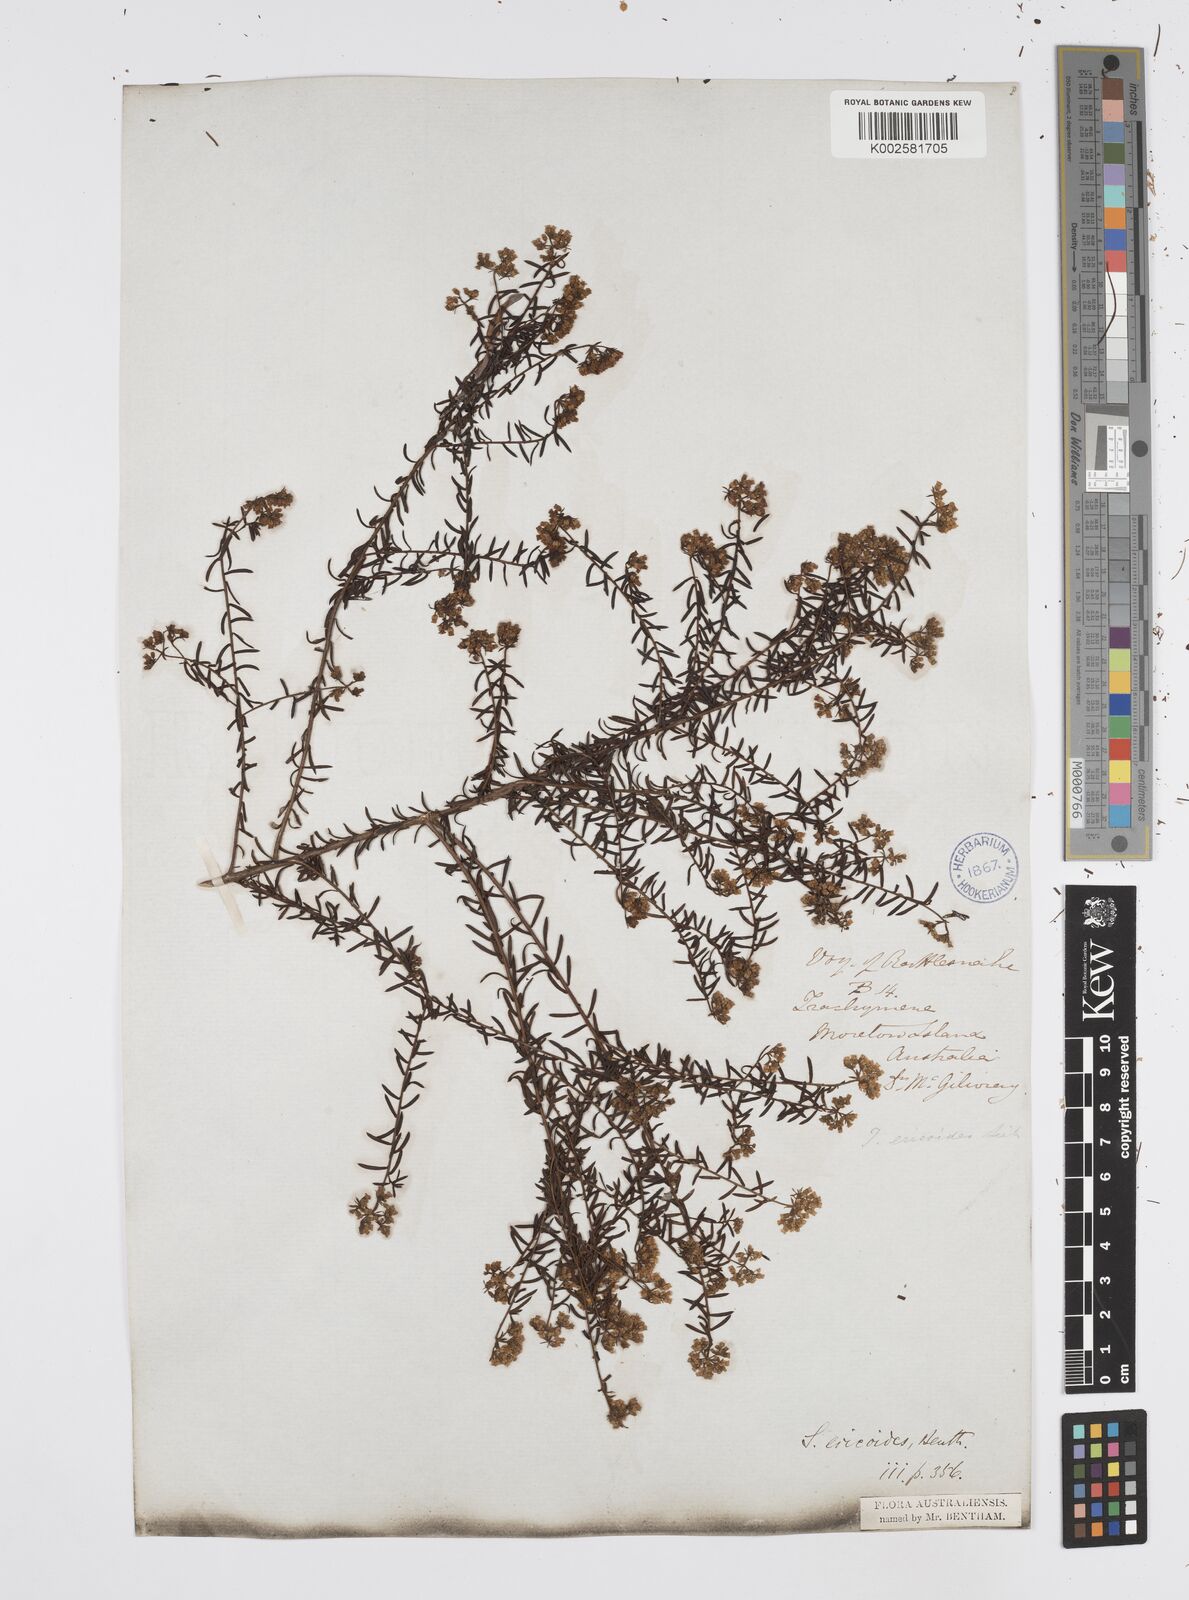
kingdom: Plantae
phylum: Tracheophyta
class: Magnoliopsida
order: Apiales
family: Apiaceae
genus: Platysace
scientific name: Platysace ericoides
